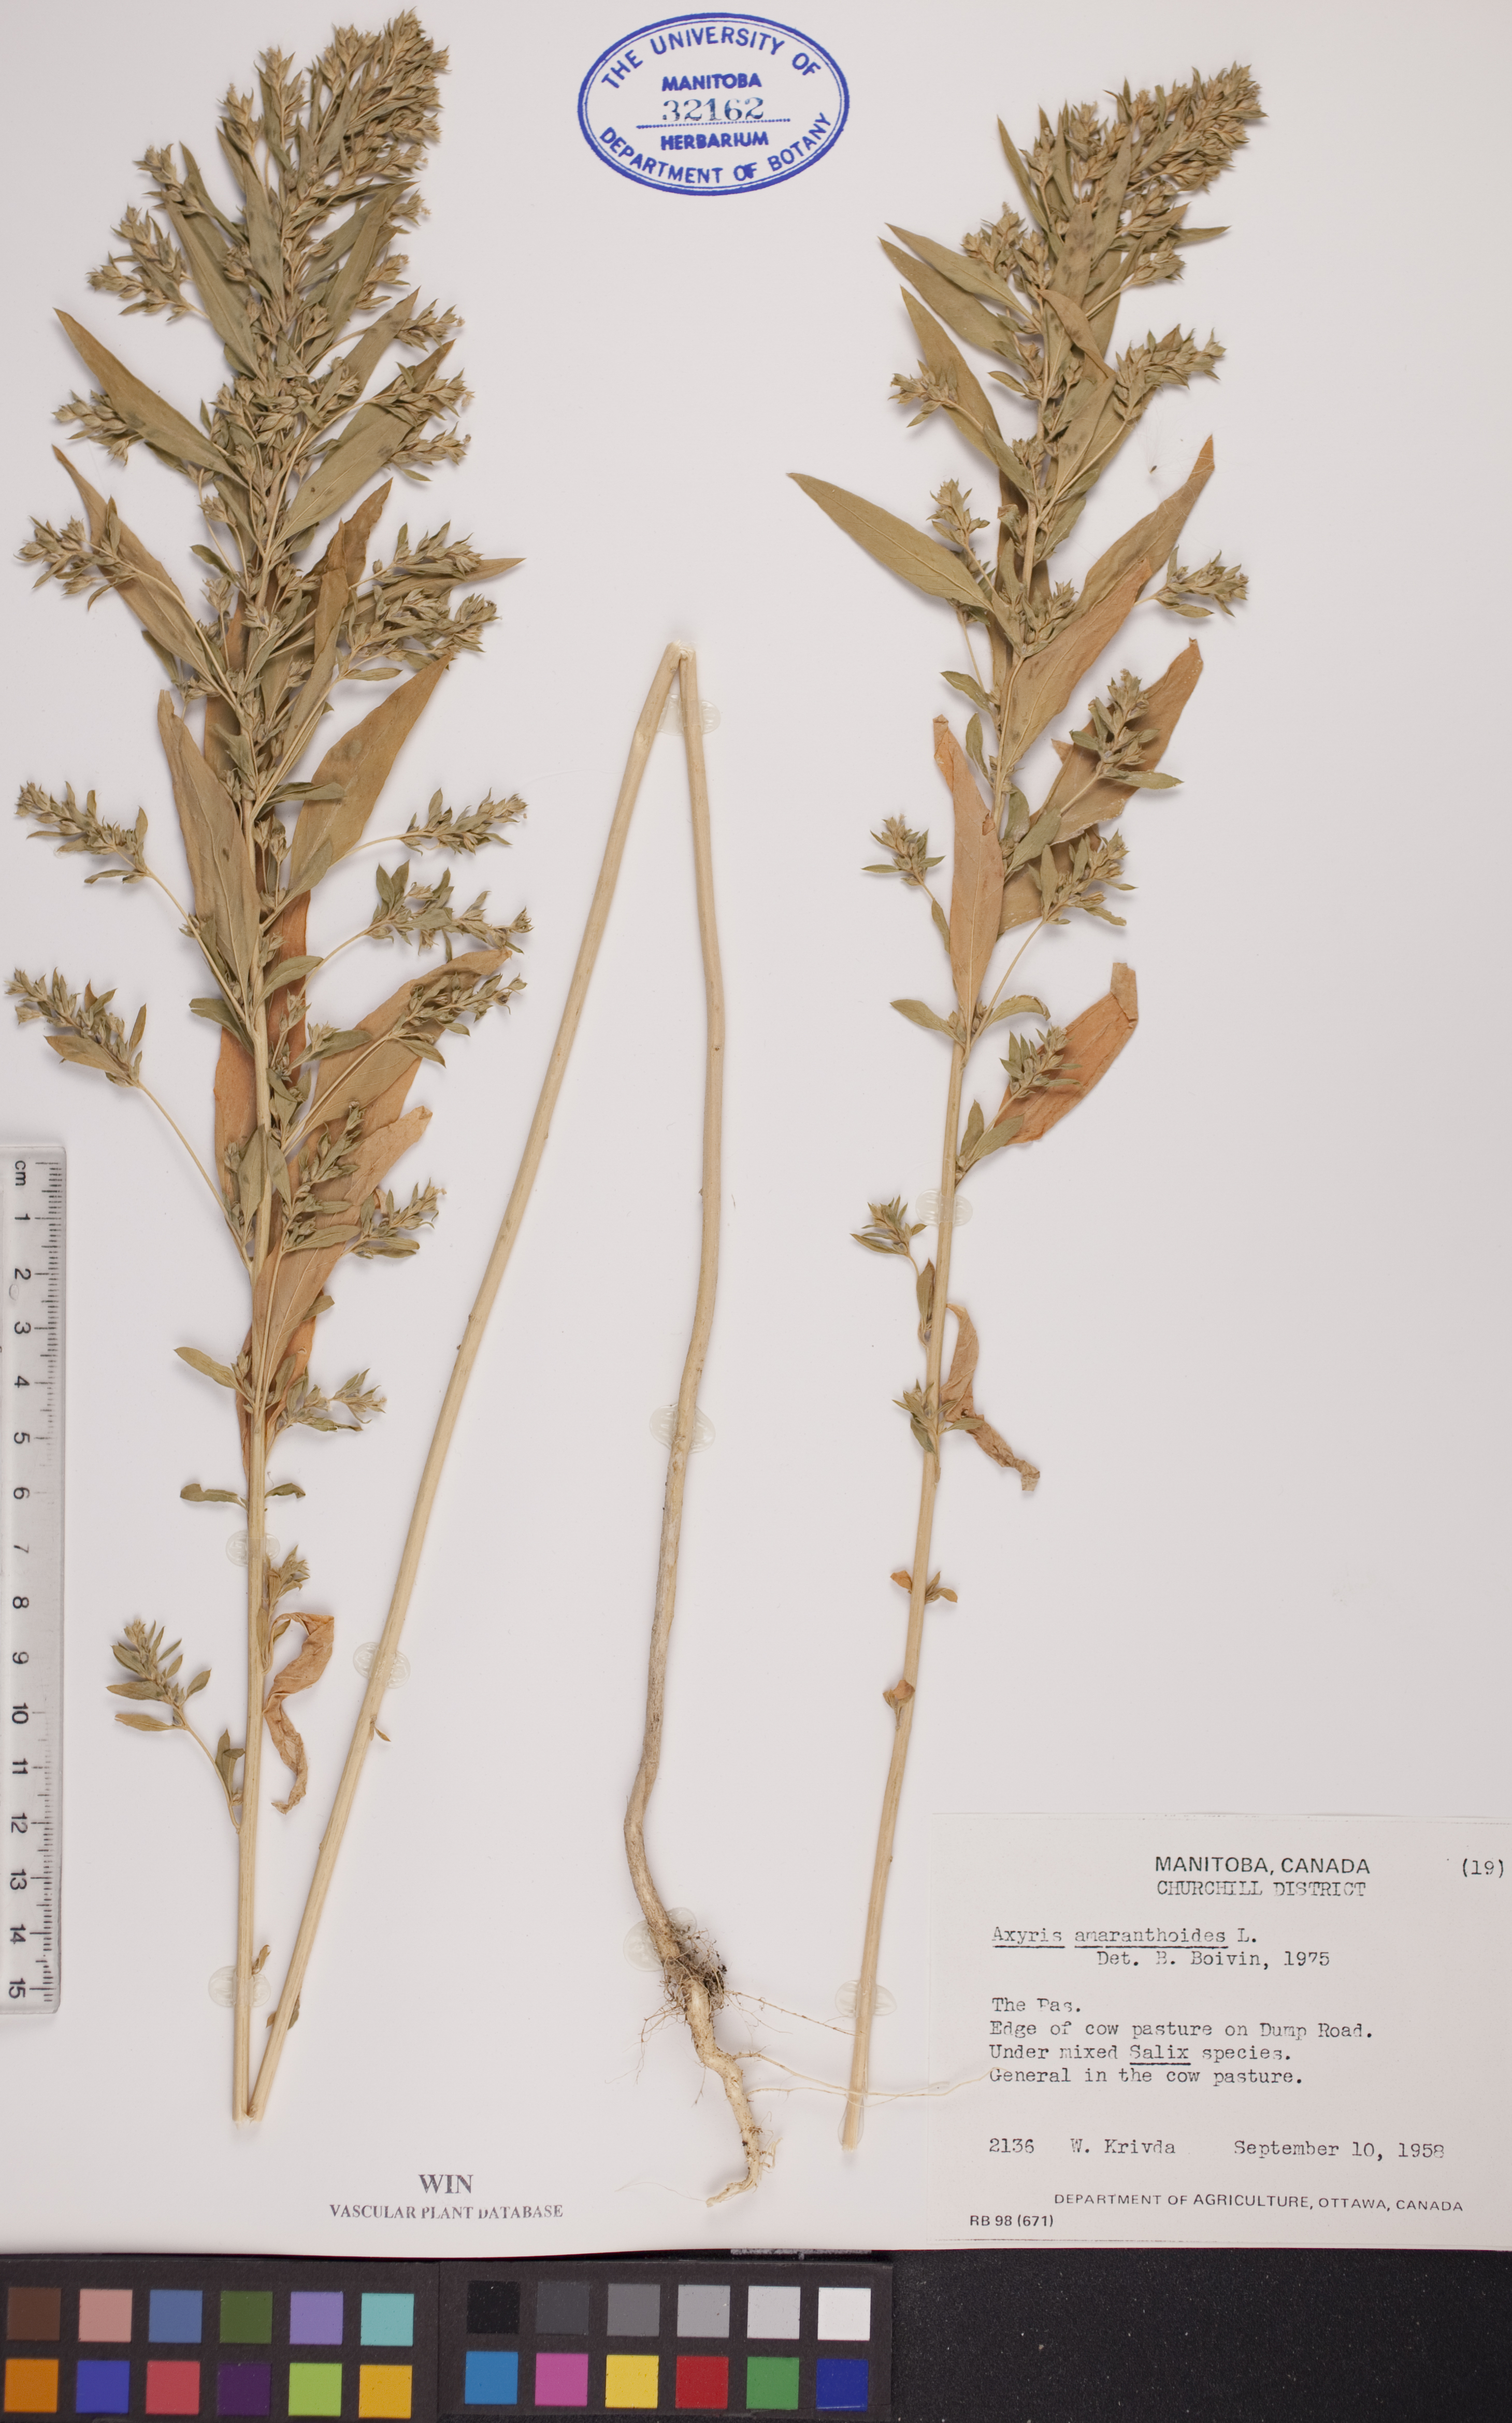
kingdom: Plantae
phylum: Tracheophyta
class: Magnoliopsida
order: Caryophyllales
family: Amaranthaceae
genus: Axyris
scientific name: Axyris amaranthoides
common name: Russian pigweed
